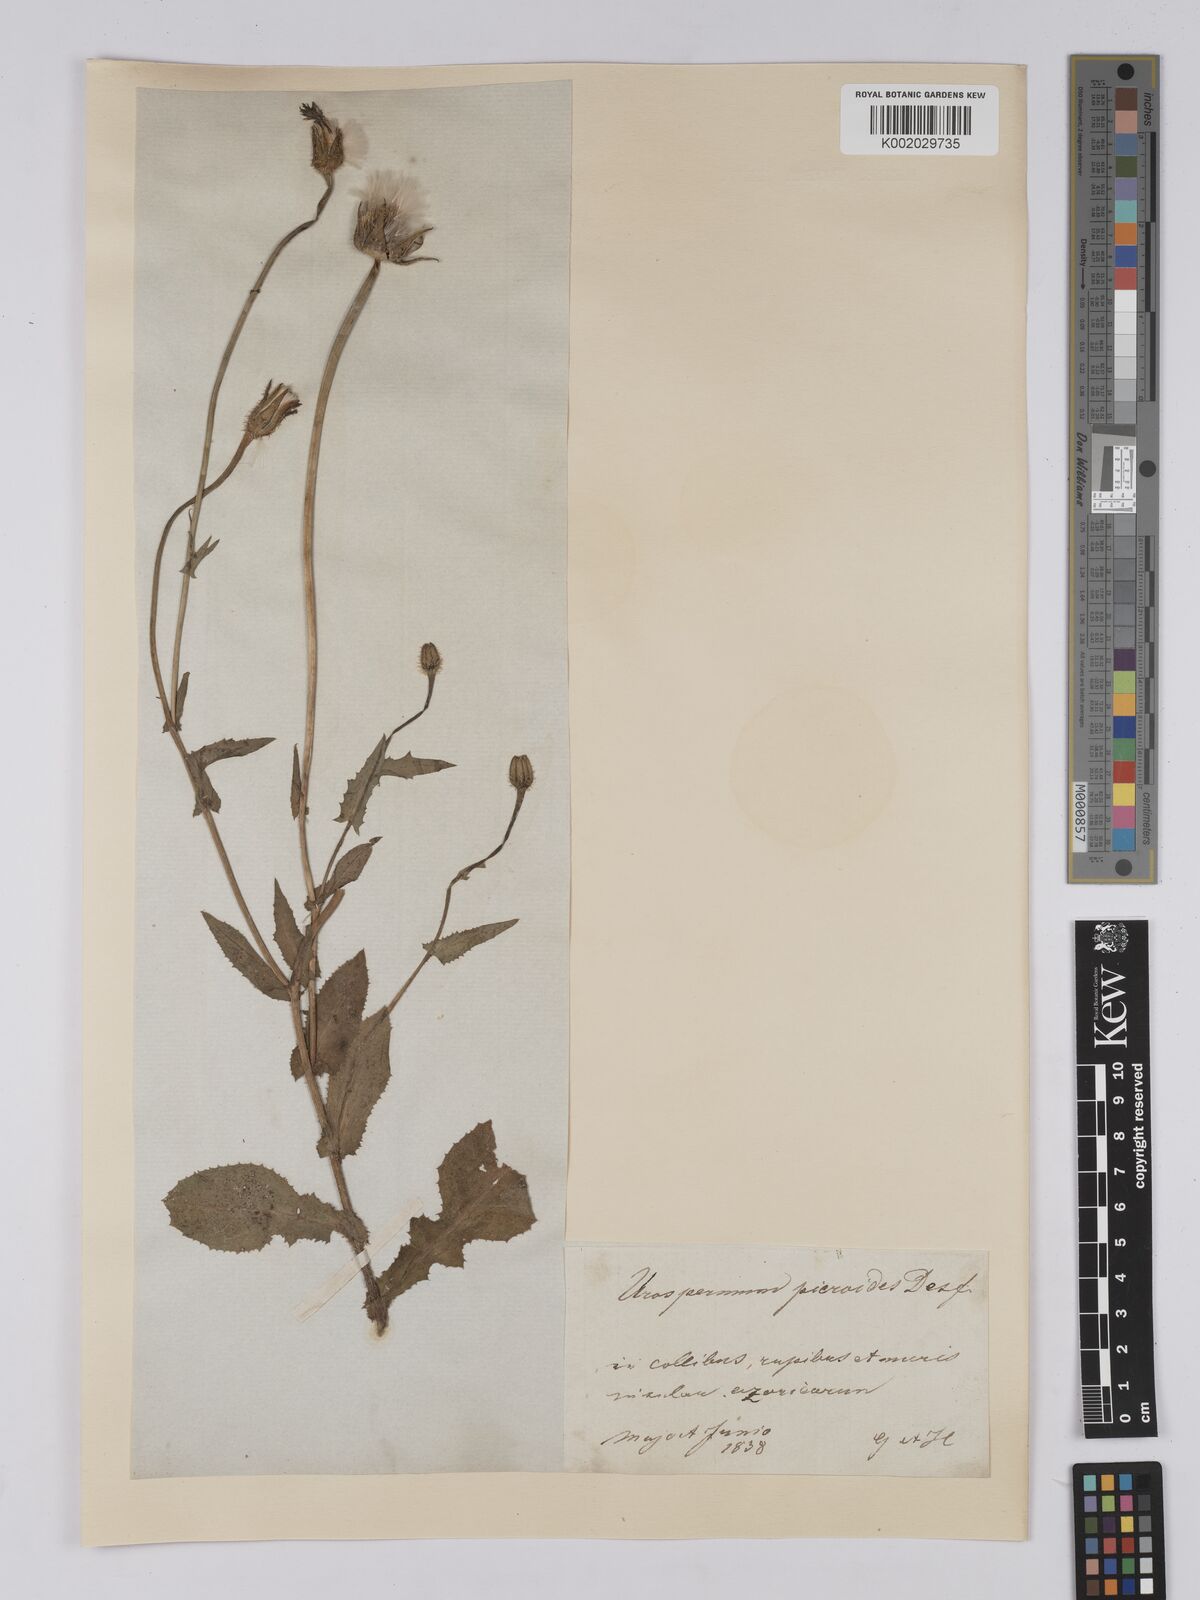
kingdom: Plantae
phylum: Tracheophyta
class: Magnoliopsida
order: Asterales
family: Asteraceae
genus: Urospermum
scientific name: Urospermum picroides
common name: False hawkbit
